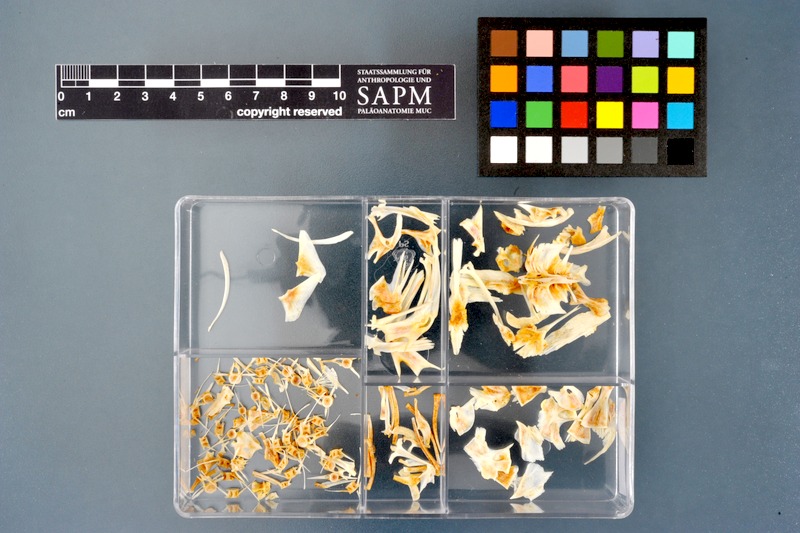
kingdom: Animalia
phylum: Chordata
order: Siluriformes
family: Bagridae
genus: Bagrus
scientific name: Bagrus docmak
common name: Silver catfish
